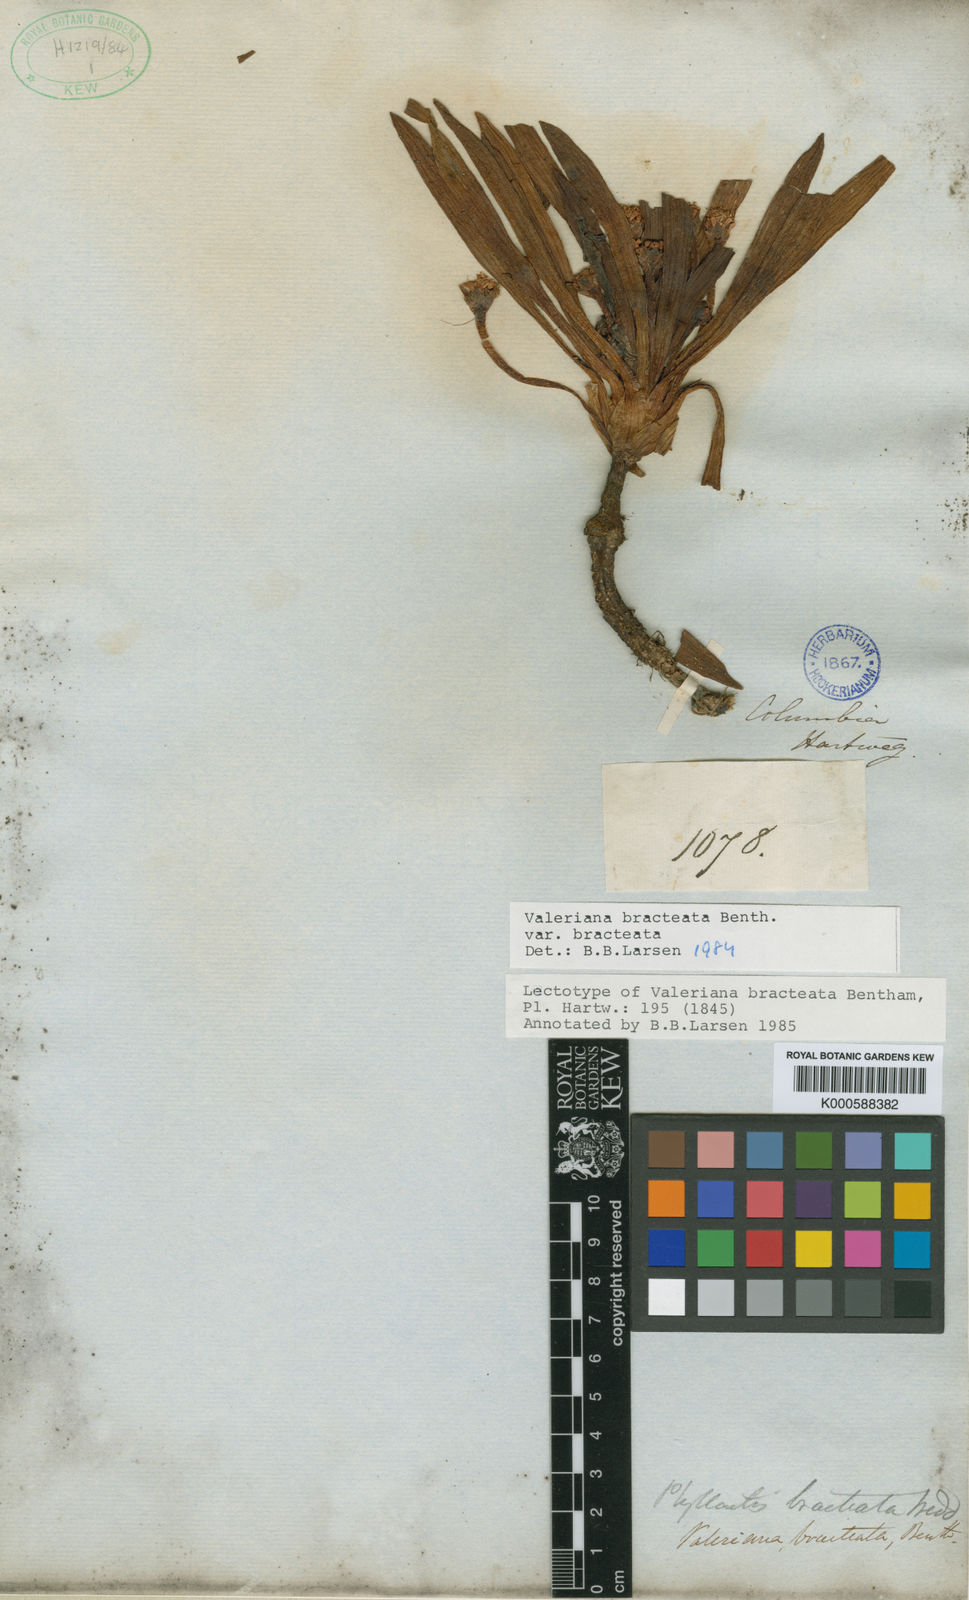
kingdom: Plantae
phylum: Tracheophyta
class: Magnoliopsida
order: Dipsacales
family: Caprifoliaceae
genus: Valeriana
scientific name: Valeriana bracteata
